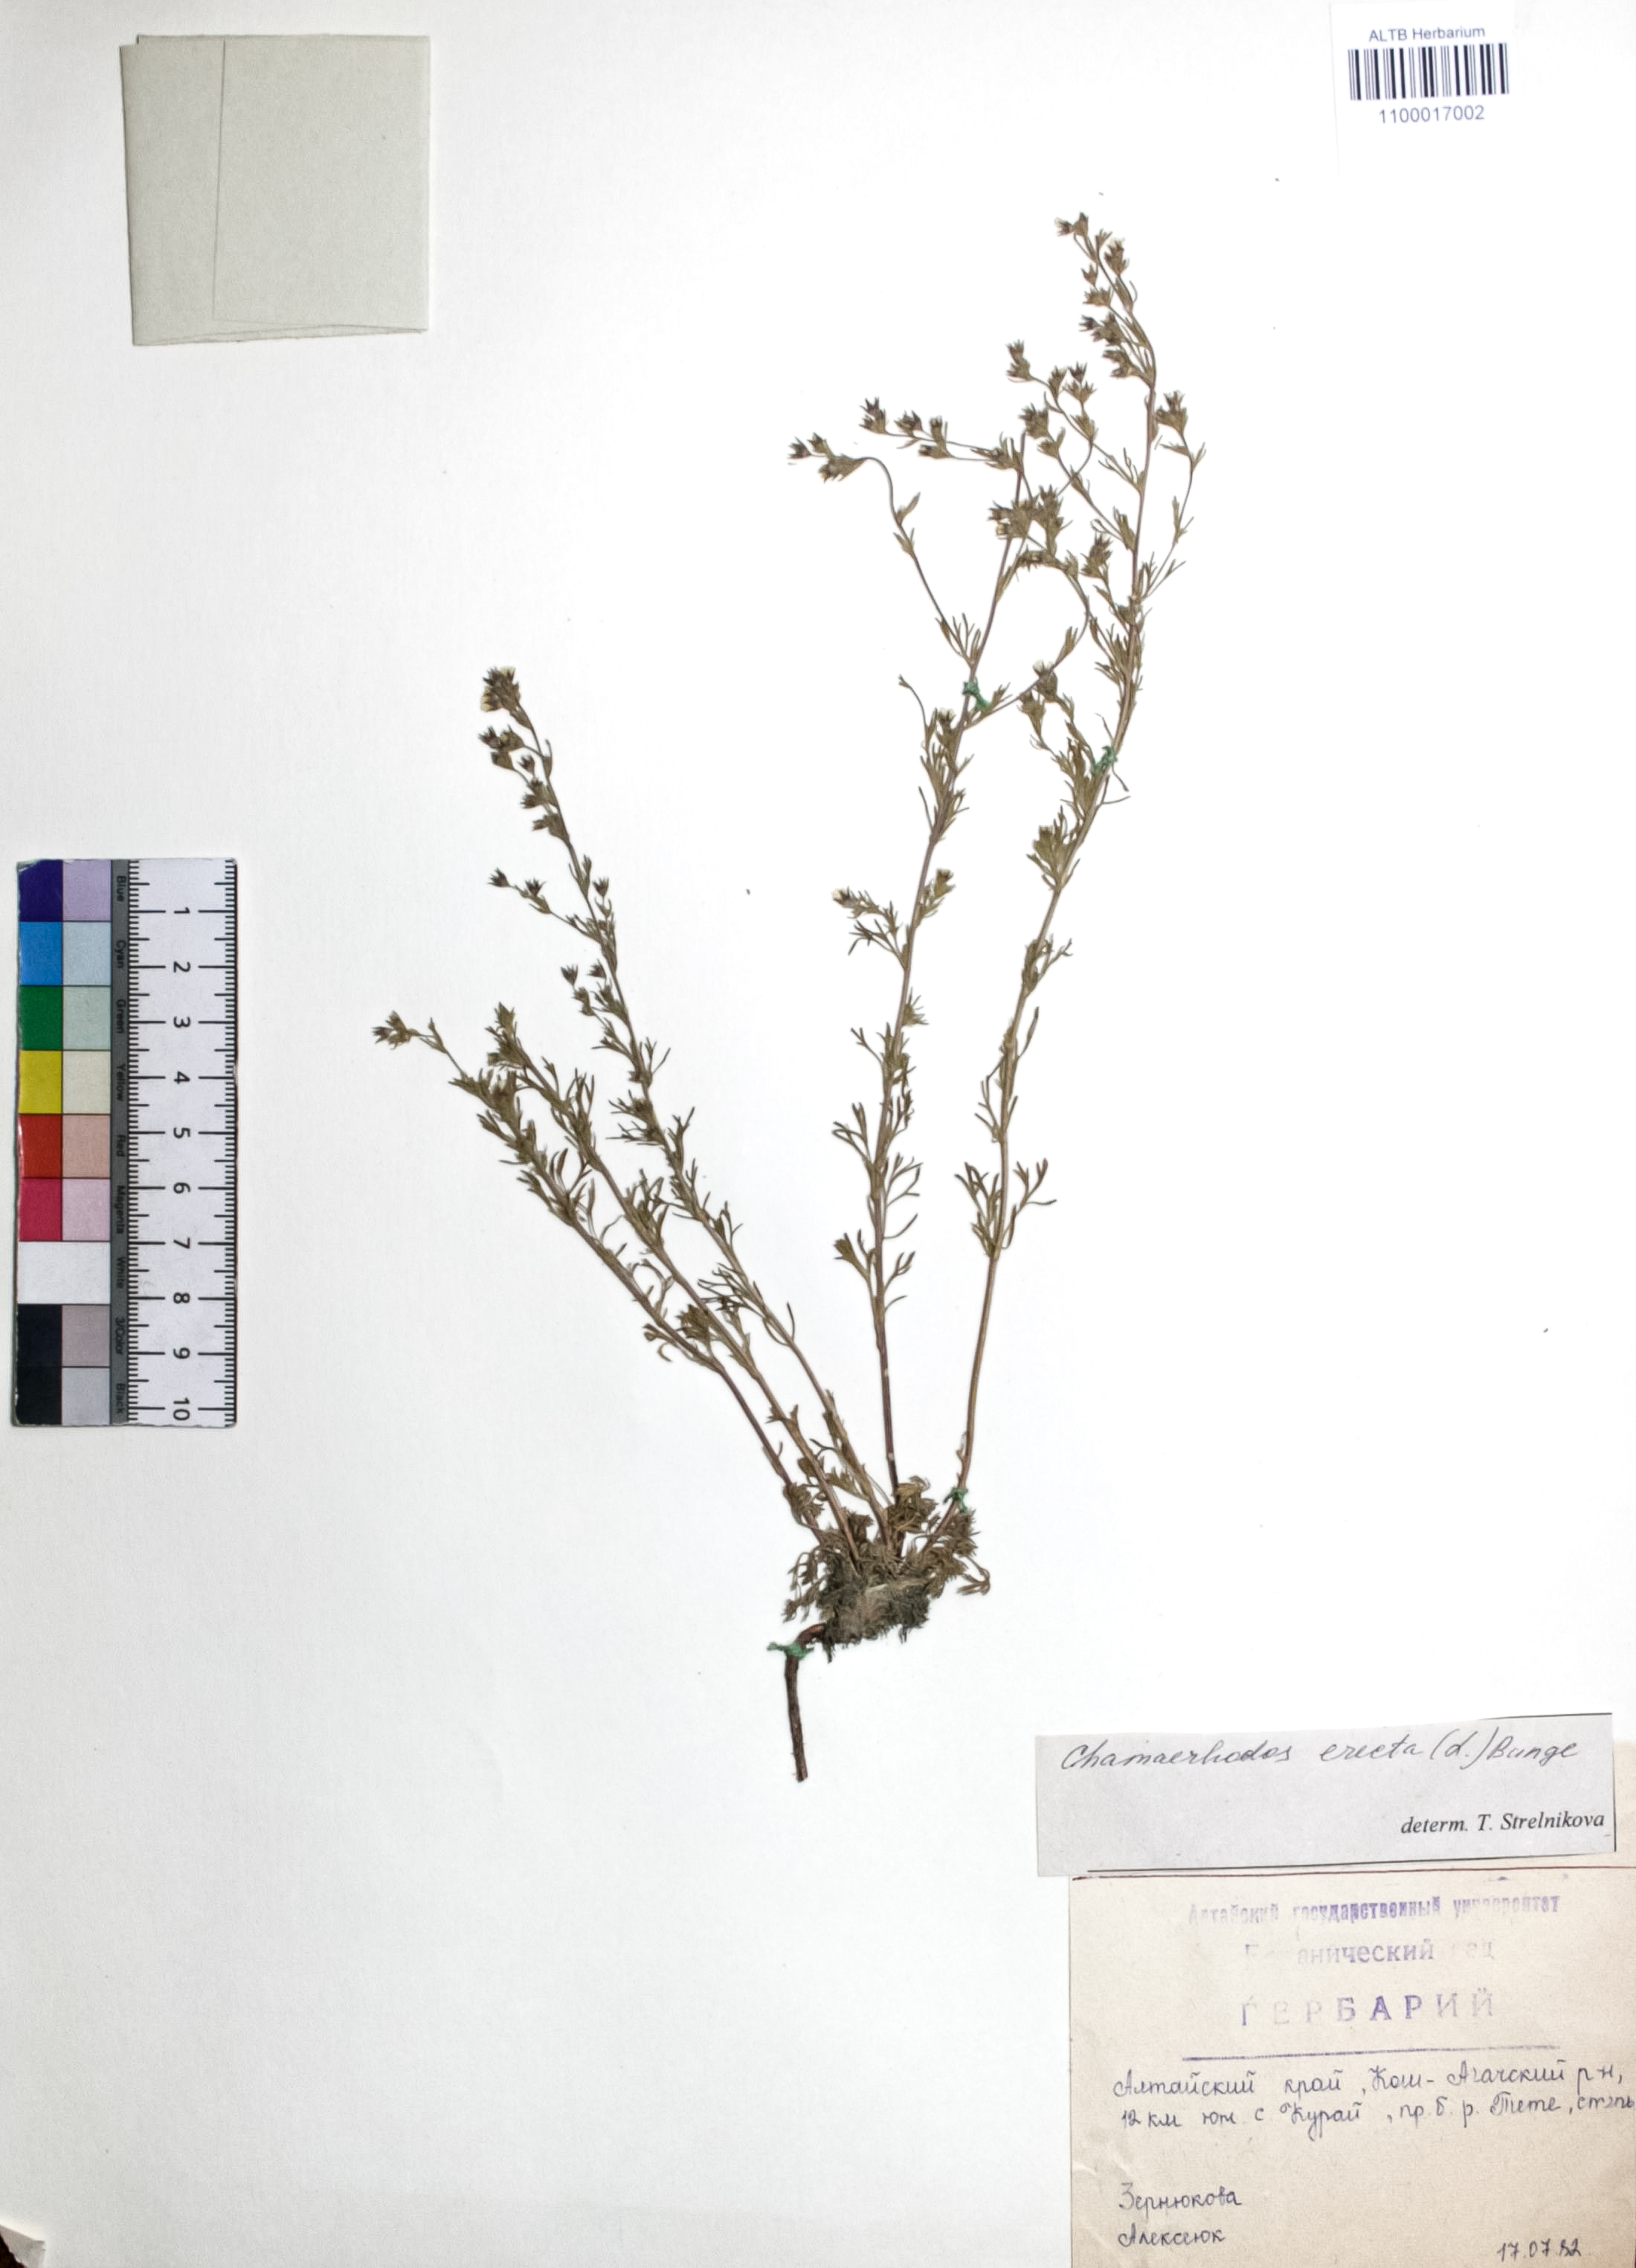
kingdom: Plantae
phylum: Tracheophyta
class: Magnoliopsida
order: Rosales
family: Rosaceae
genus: Chamaerhodos
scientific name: Chamaerhodos erecta
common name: American chamaerhodos
